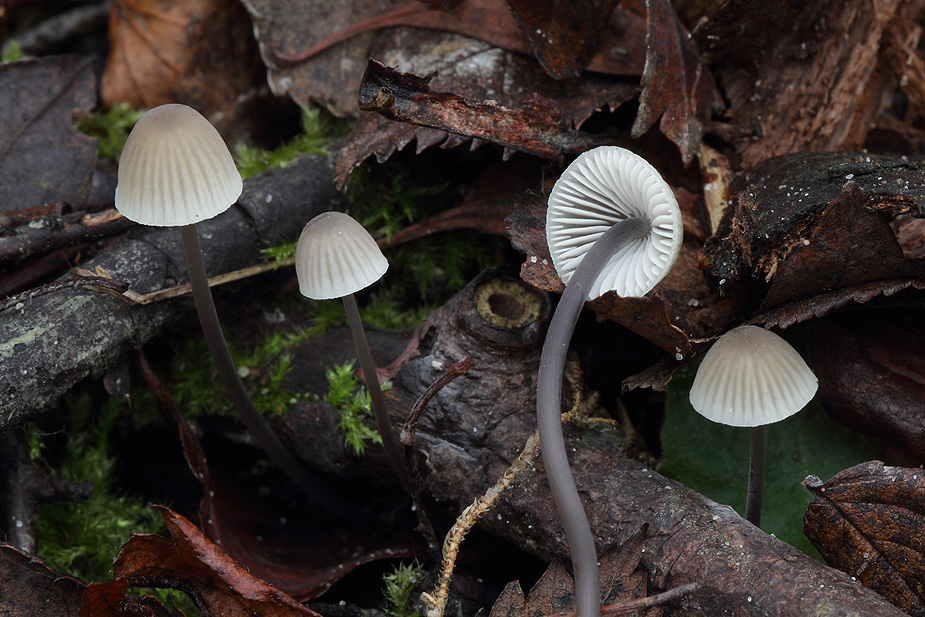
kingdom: Fungi
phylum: Basidiomycota
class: Agaricomycetes
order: Agaricales
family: Mycenaceae
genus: Mycena
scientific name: Mycena arcangeliana
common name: oliven-huesvamp
